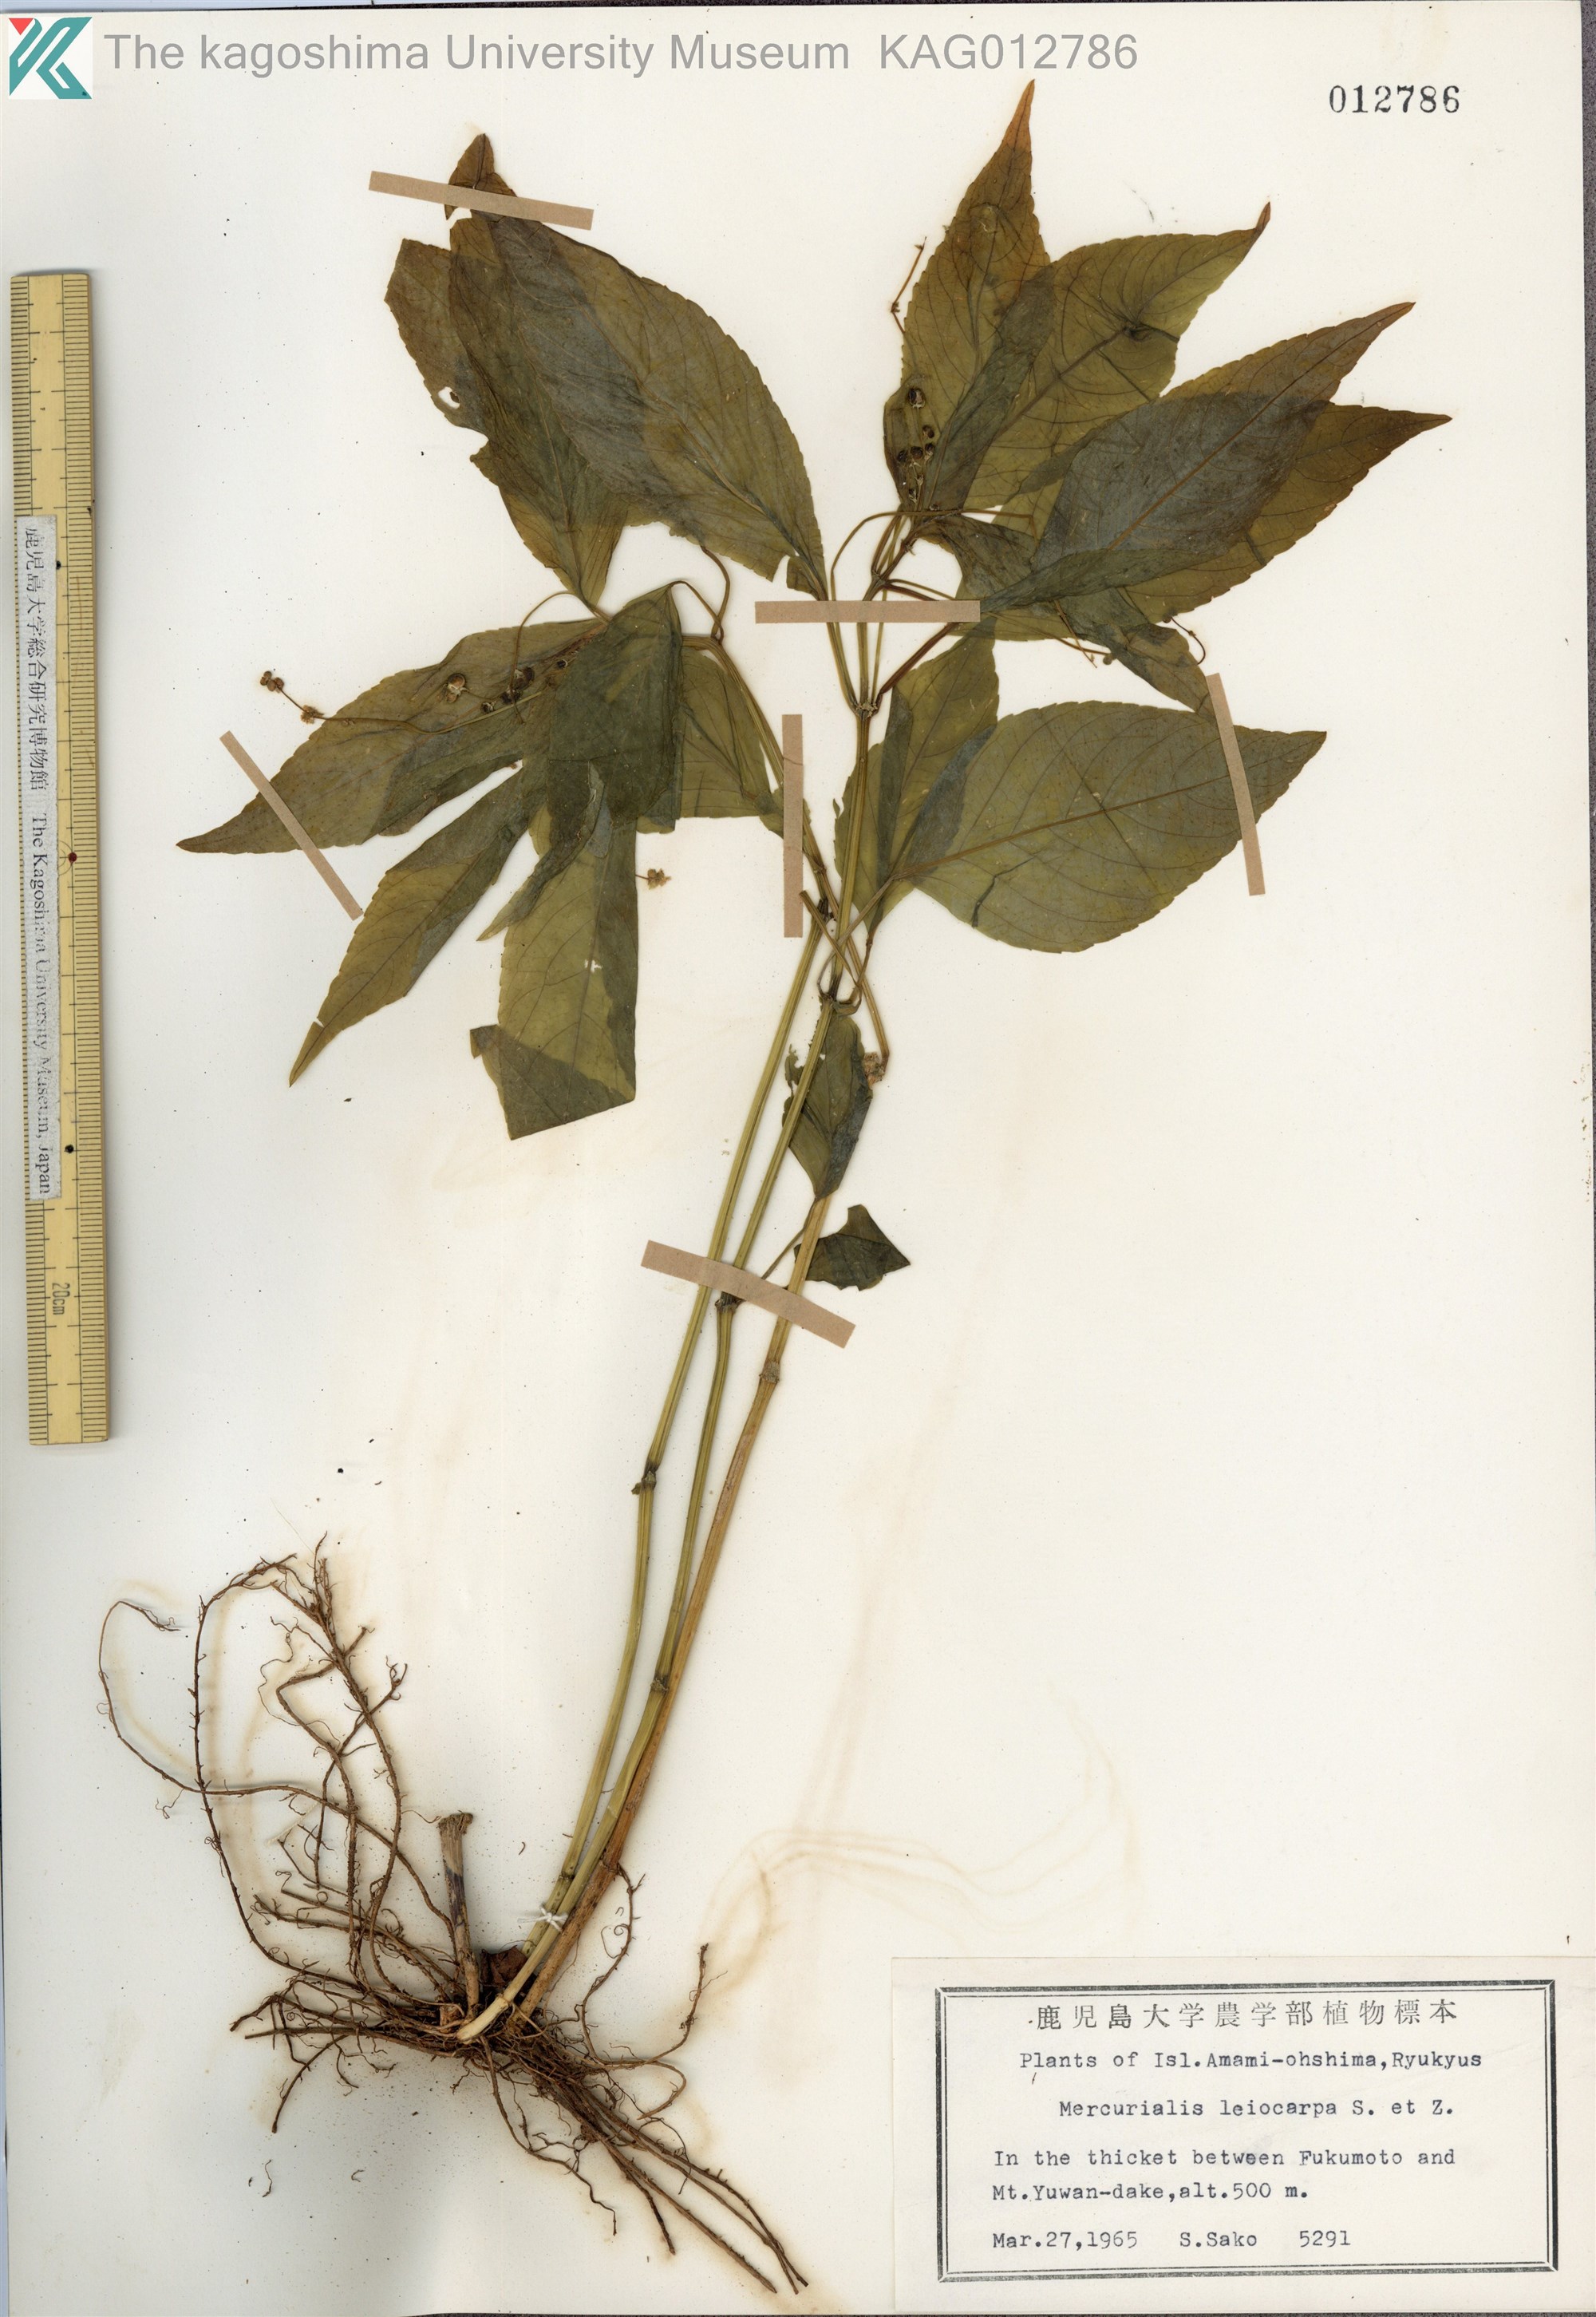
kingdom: Plantae
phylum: Tracheophyta
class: Magnoliopsida
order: Malpighiales
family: Euphorbiaceae
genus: Mercurialis
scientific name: Mercurialis leiocarpa
